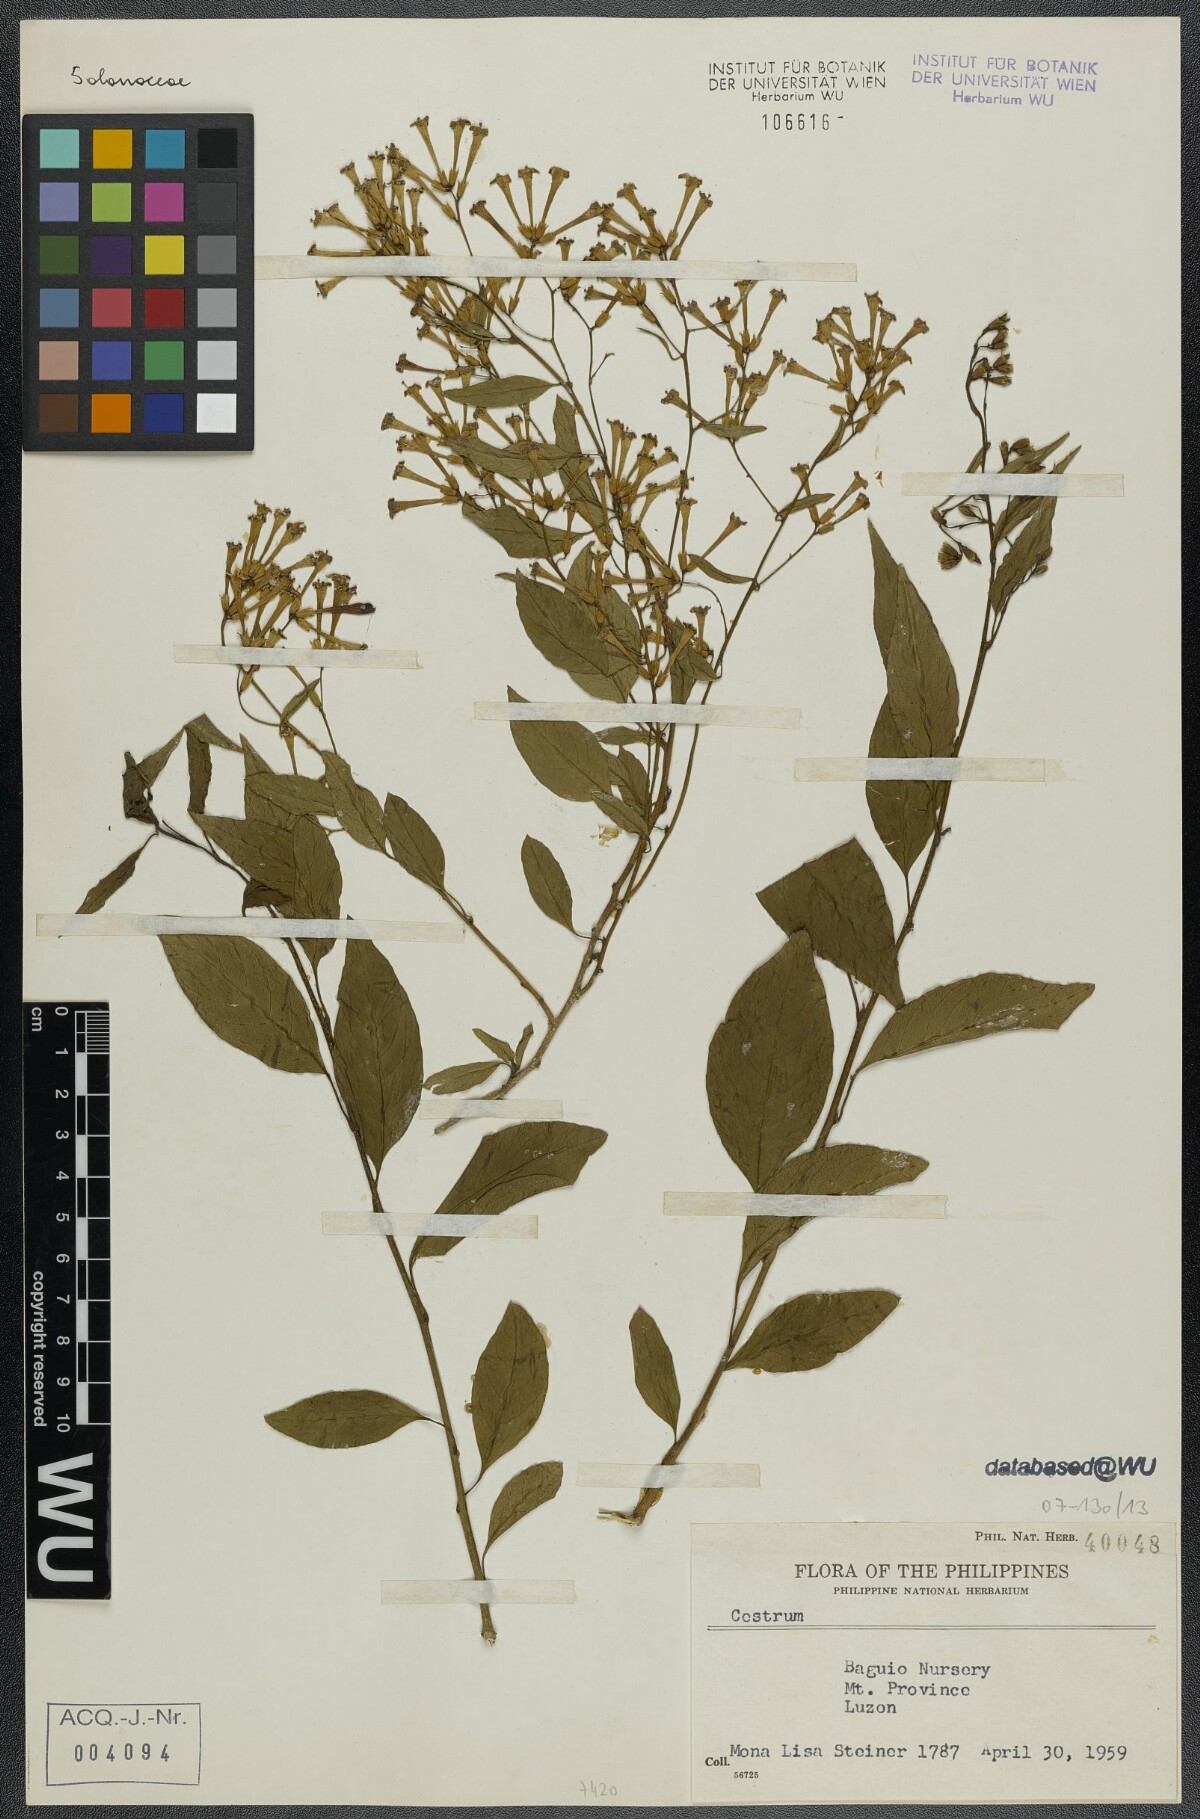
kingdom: Plantae
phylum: Tracheophyta
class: Magnoliopsida
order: Solanales
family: Solanaceae
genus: Cestrum
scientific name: Cestrum
